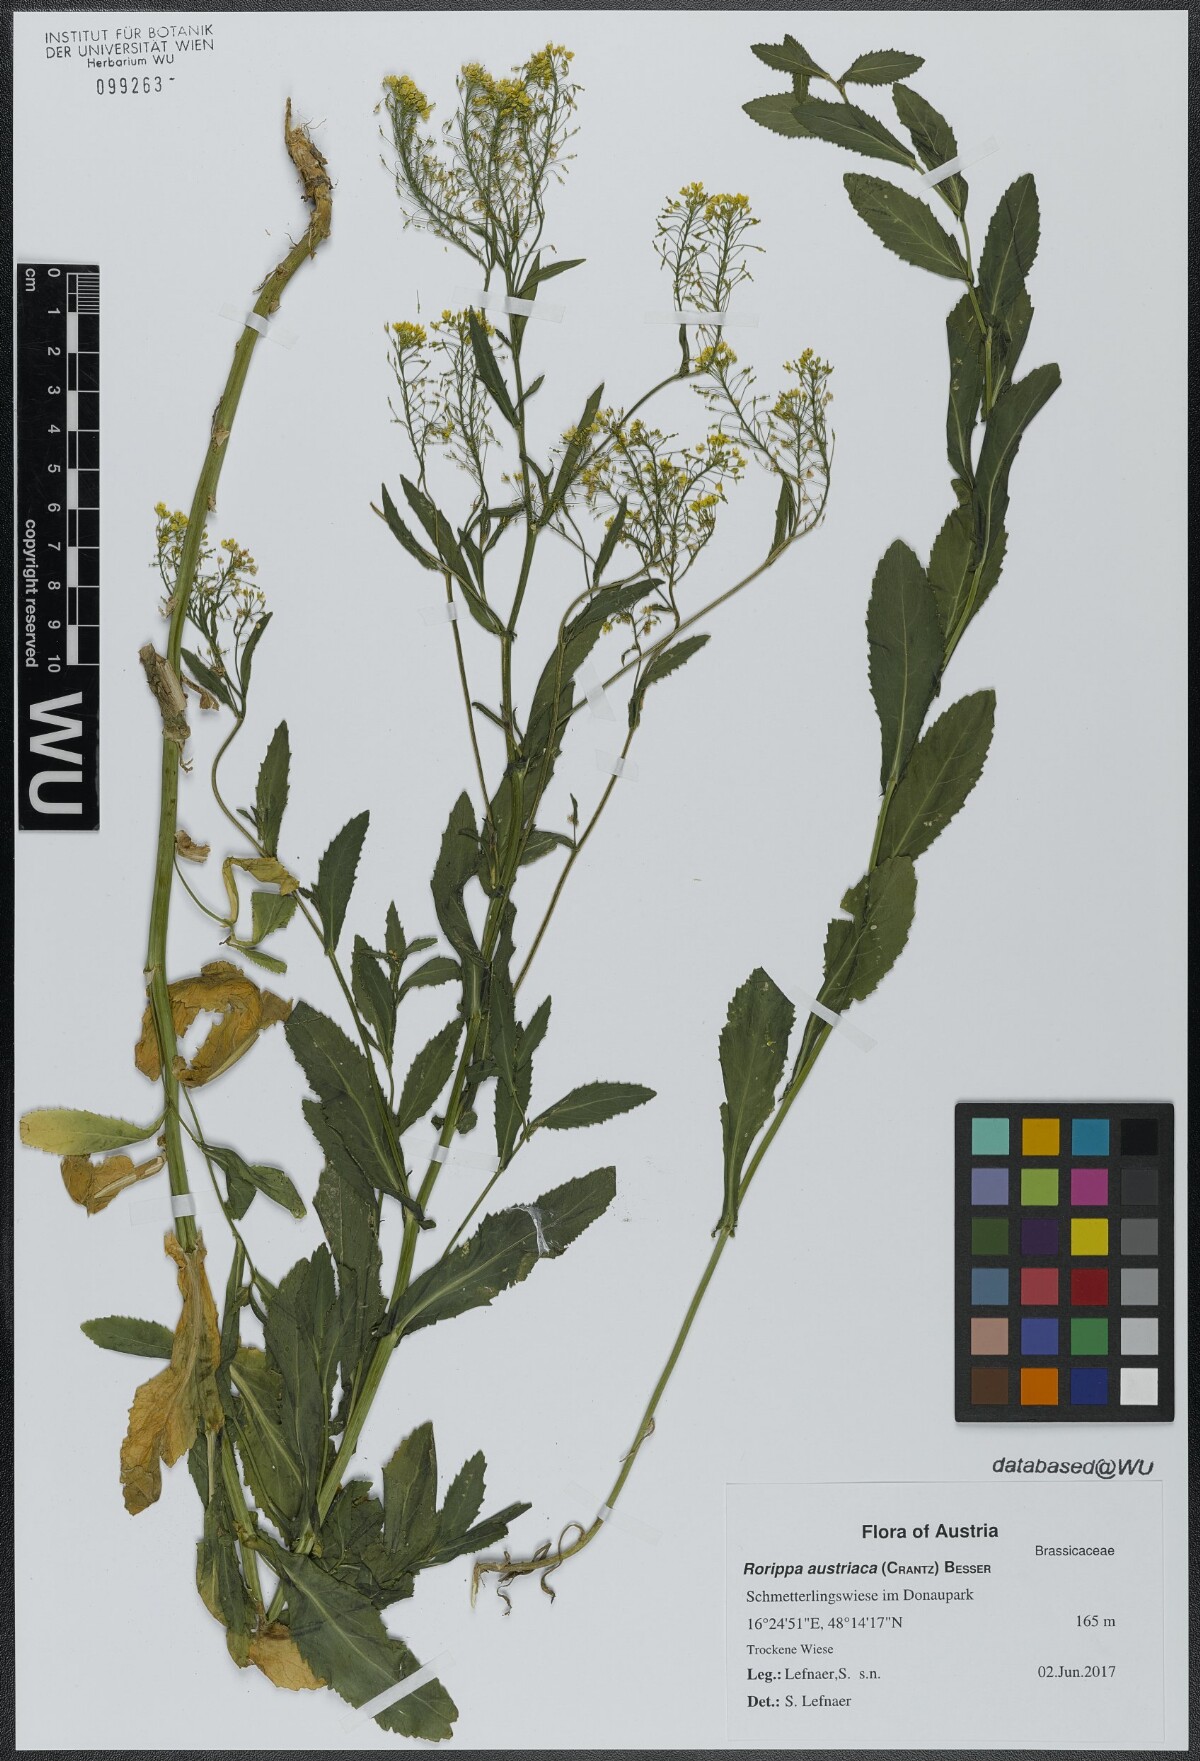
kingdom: Plantae
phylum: Tracheophyta
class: Magnoliopsida
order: Brassicales
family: Brassicaceae
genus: Rorippa
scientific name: Rorippa austriaca
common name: Austrian yellow-cress
